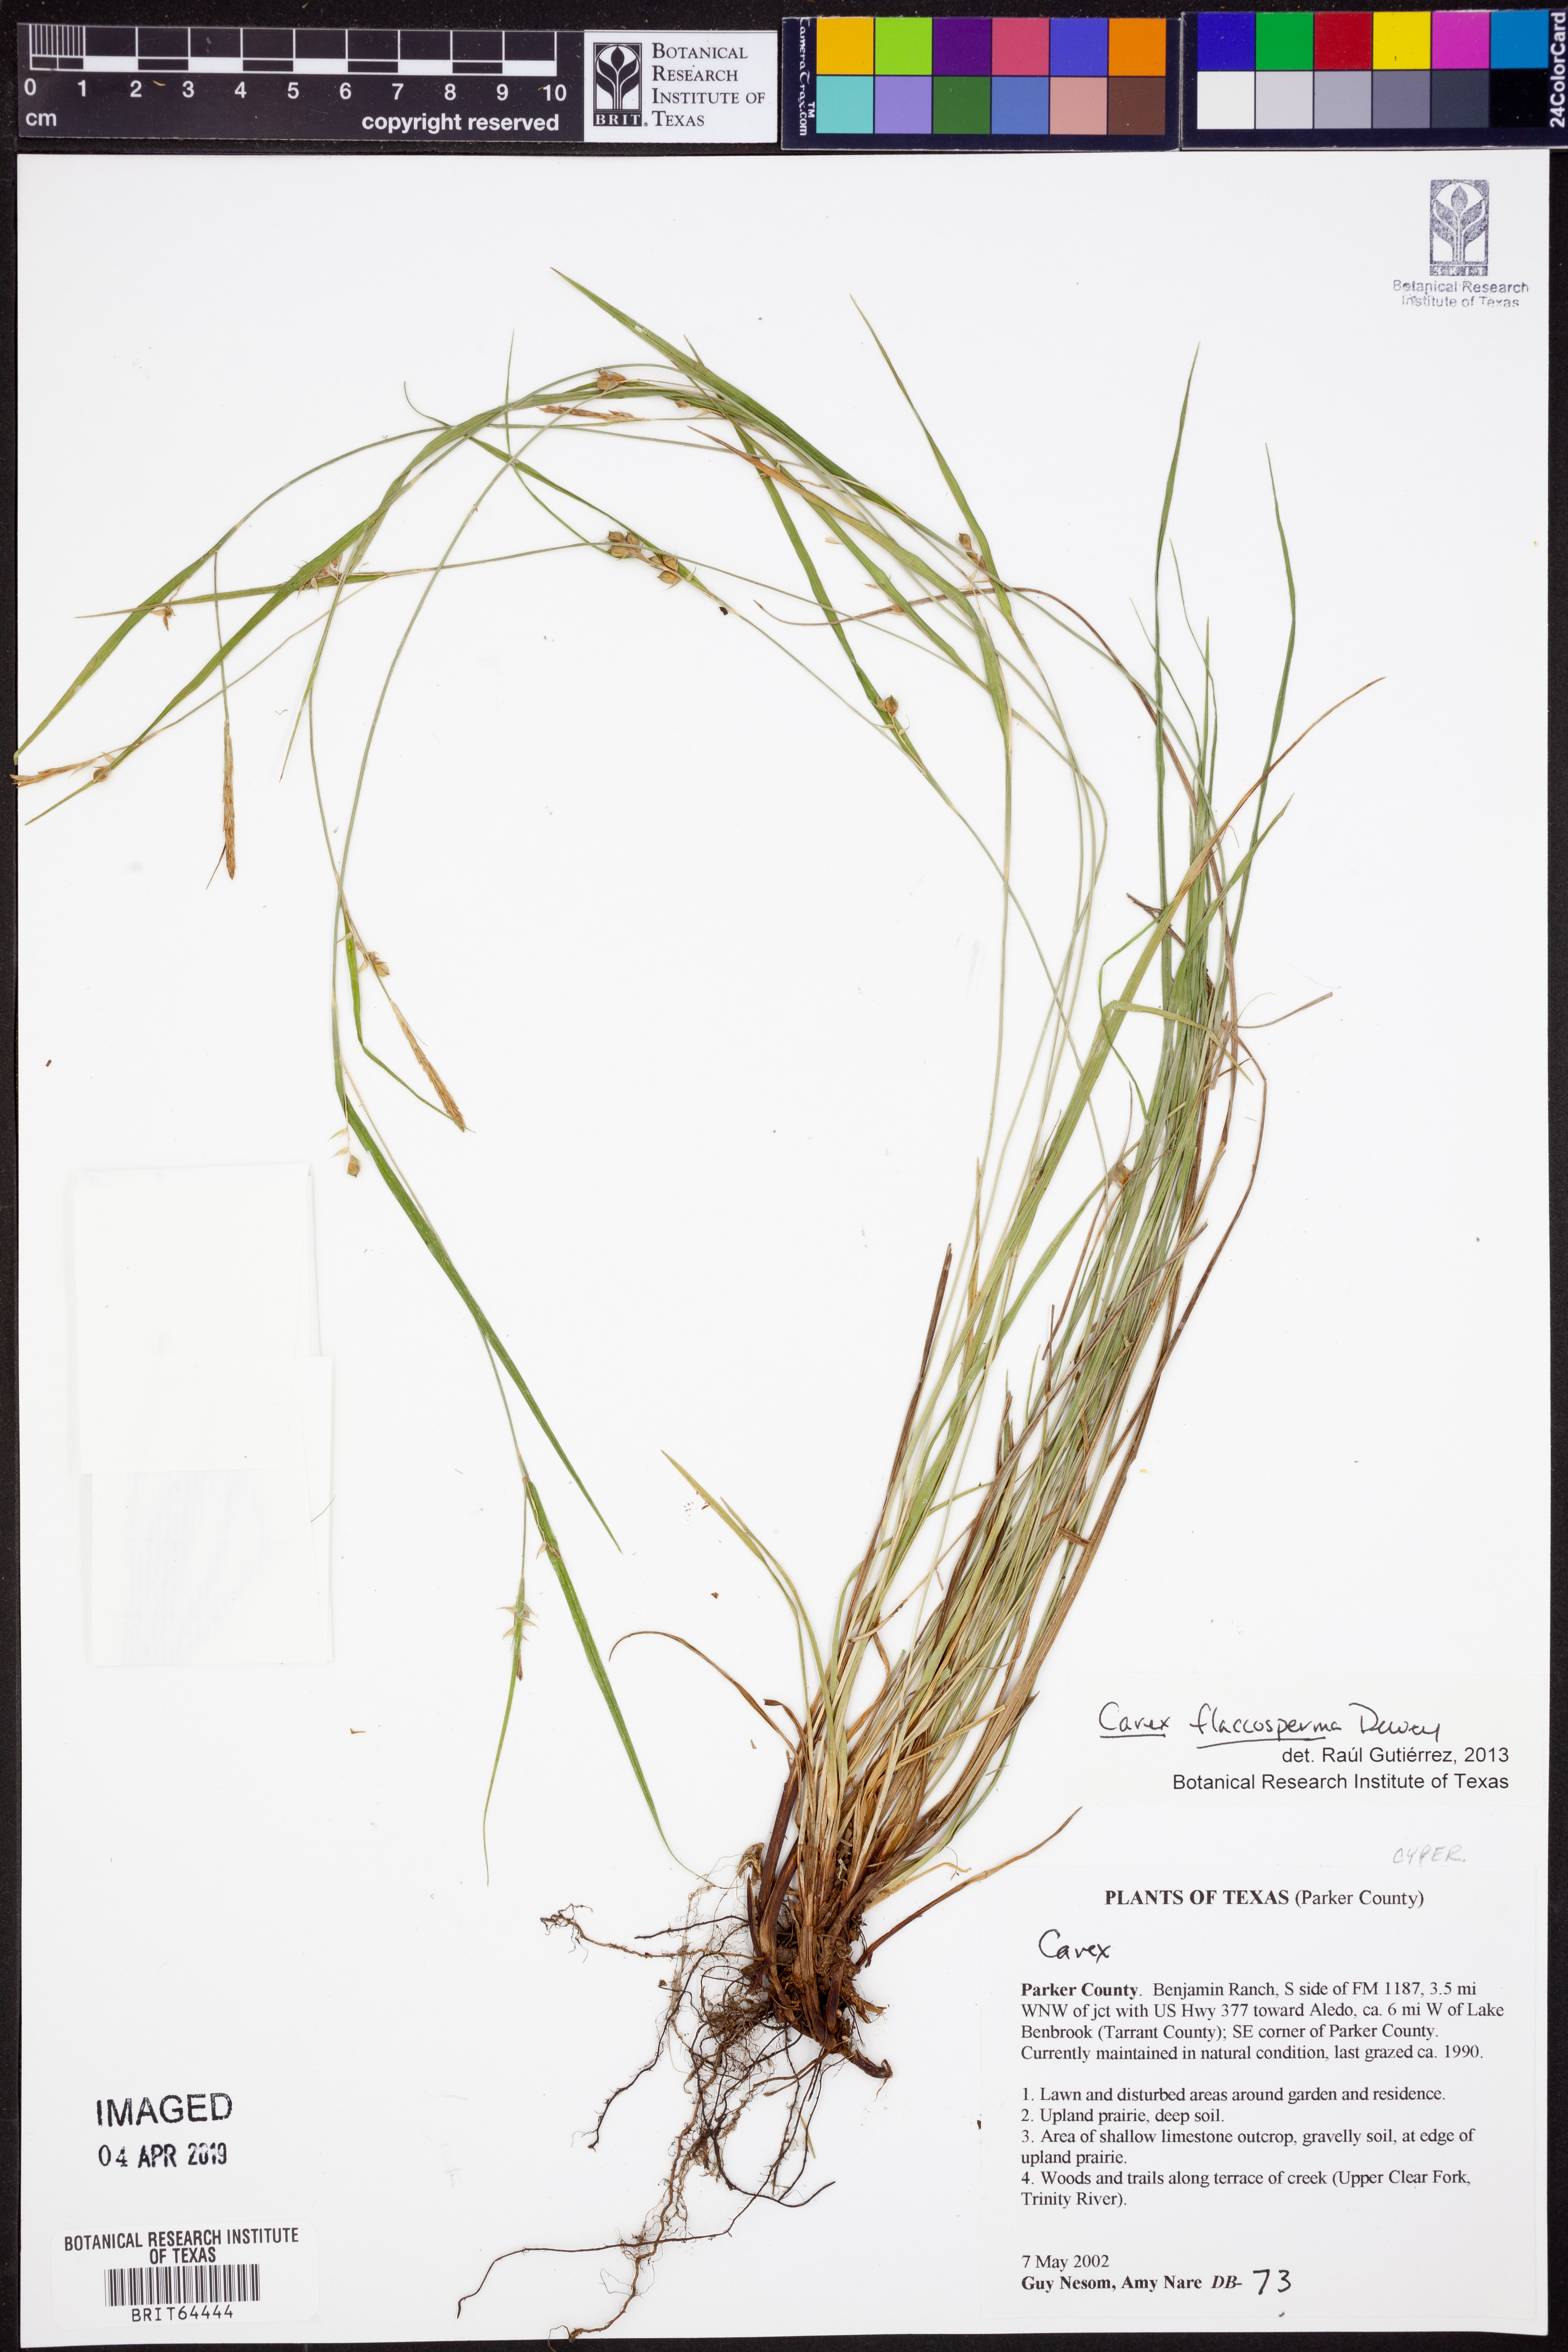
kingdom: Plantae
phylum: Tracheophyta
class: Liliopsida
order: Poales
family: Cyperaceae
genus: Carex
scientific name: Carex flaccosperma
